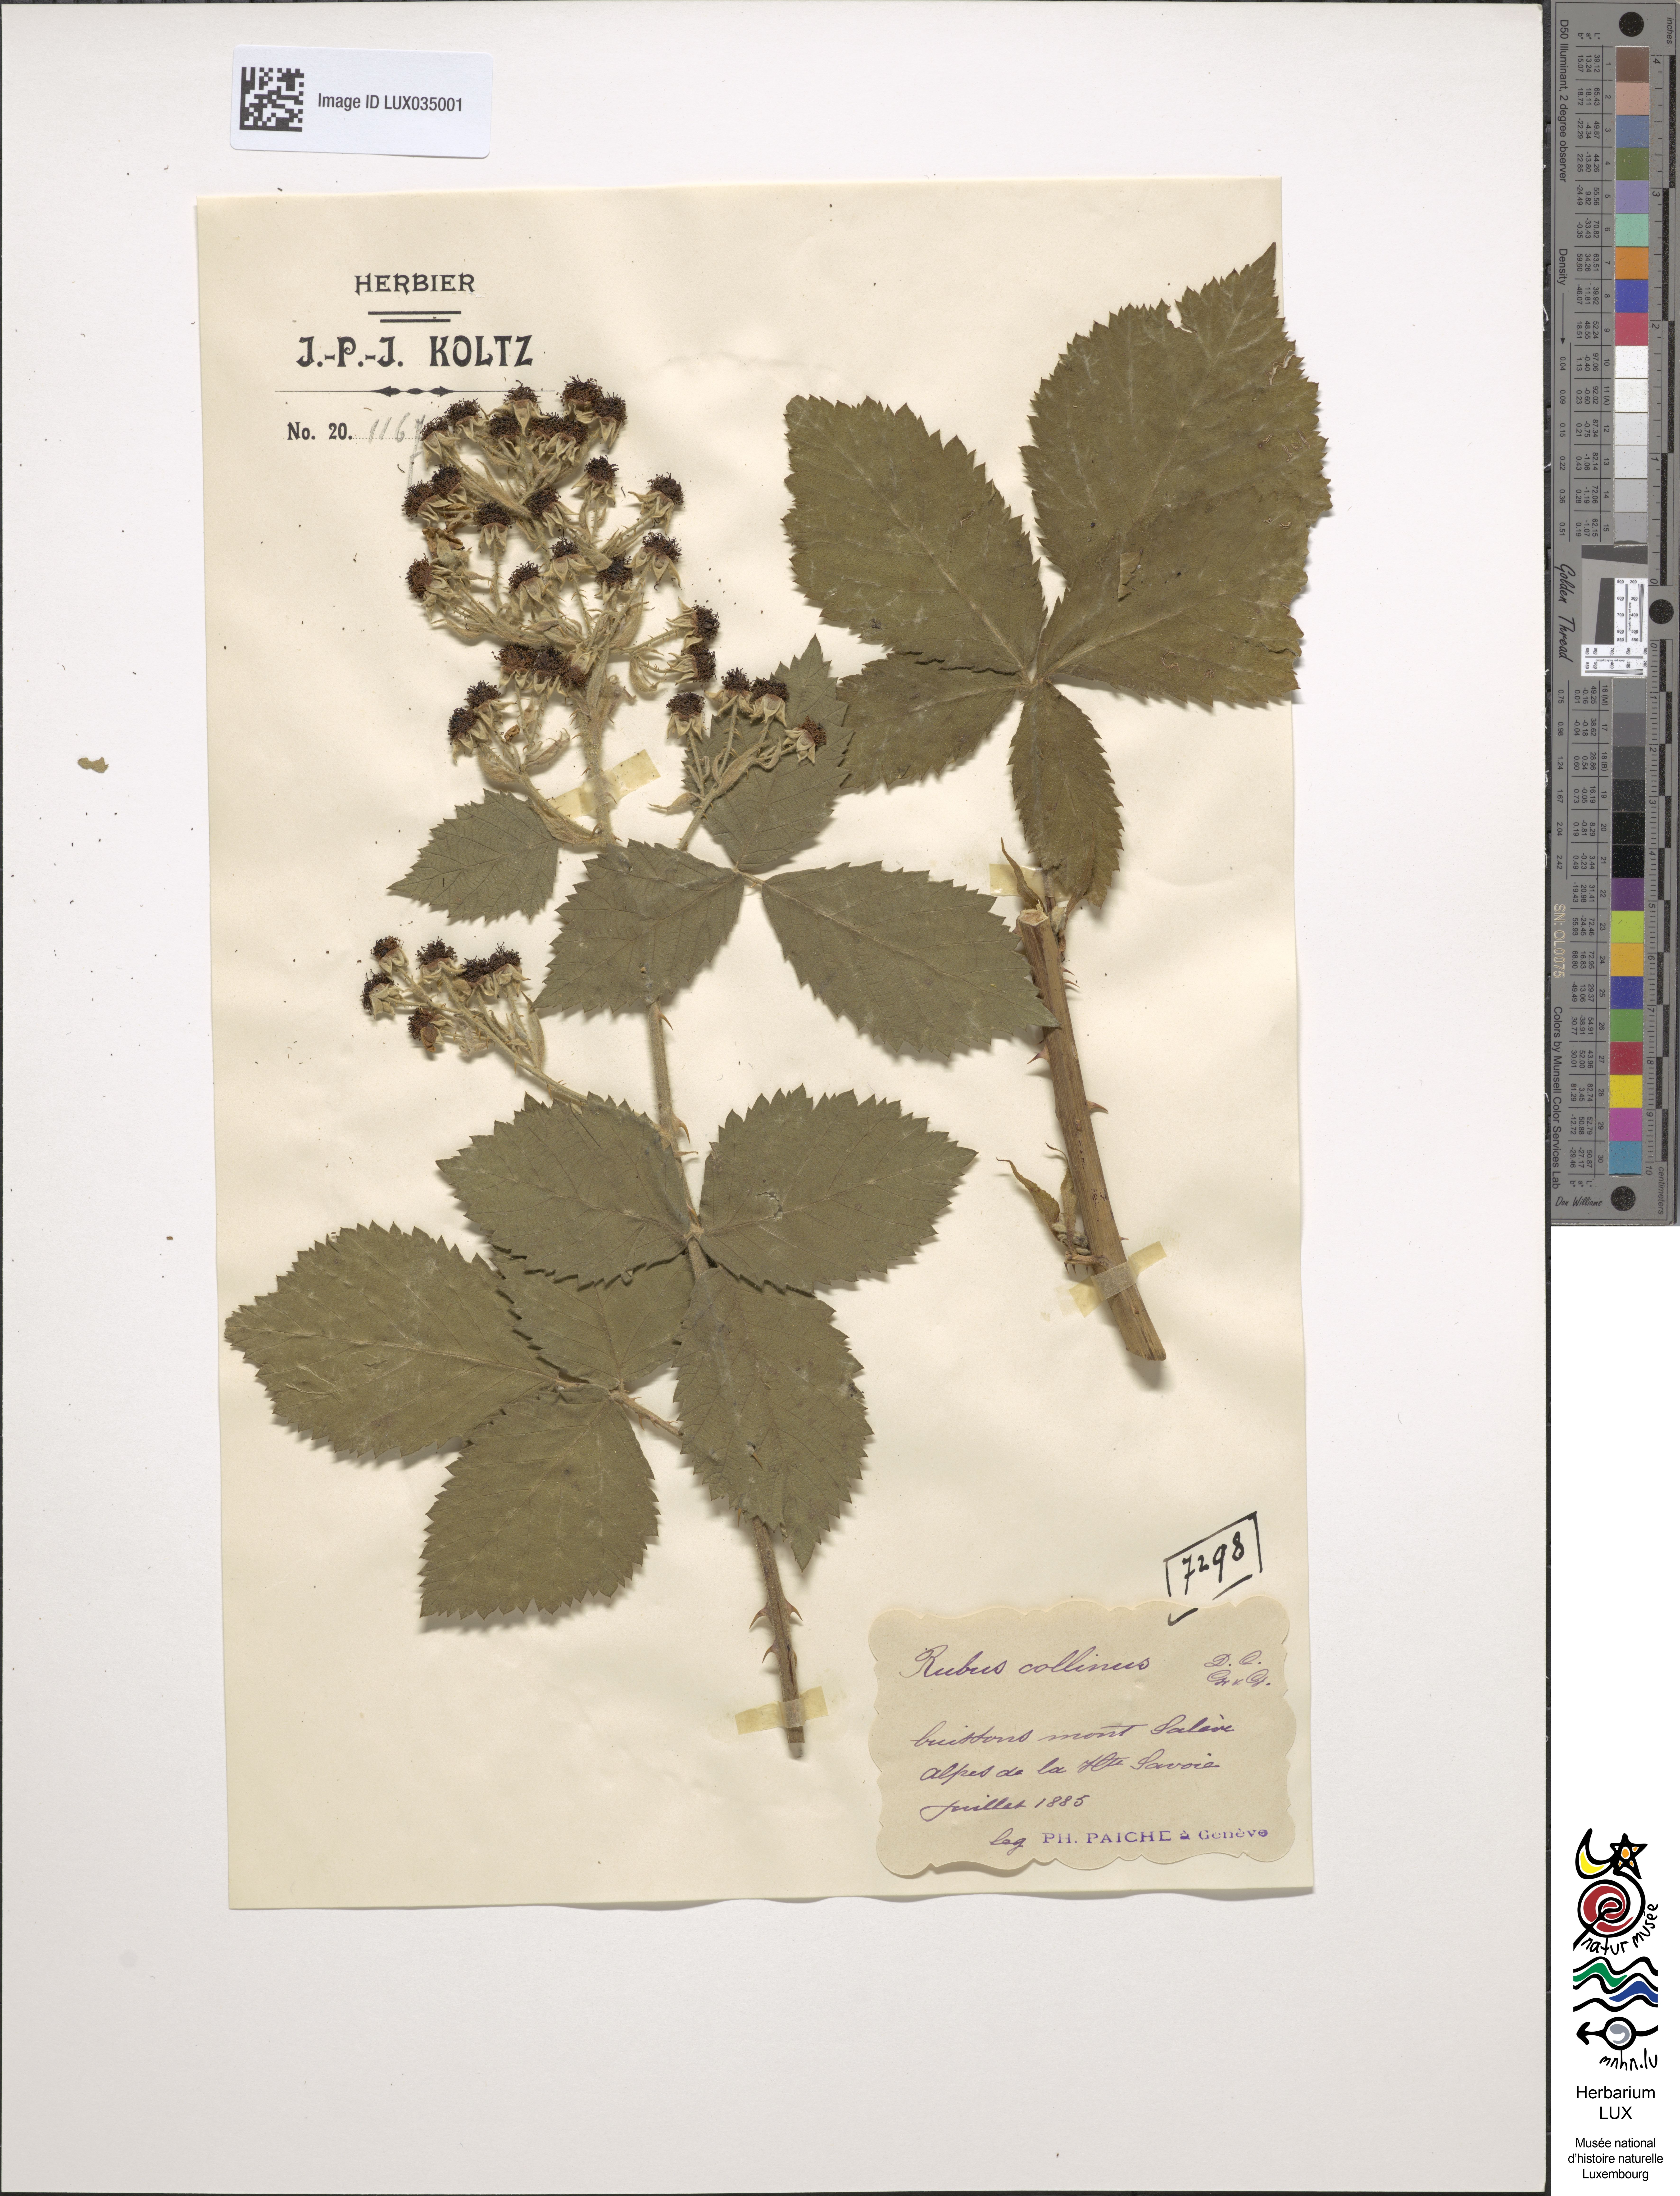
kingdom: Plantae
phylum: Tracheophyta
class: Magnoliopsida
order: Rosales
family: Rosaceae
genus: Rubus
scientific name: Rubus collinus
